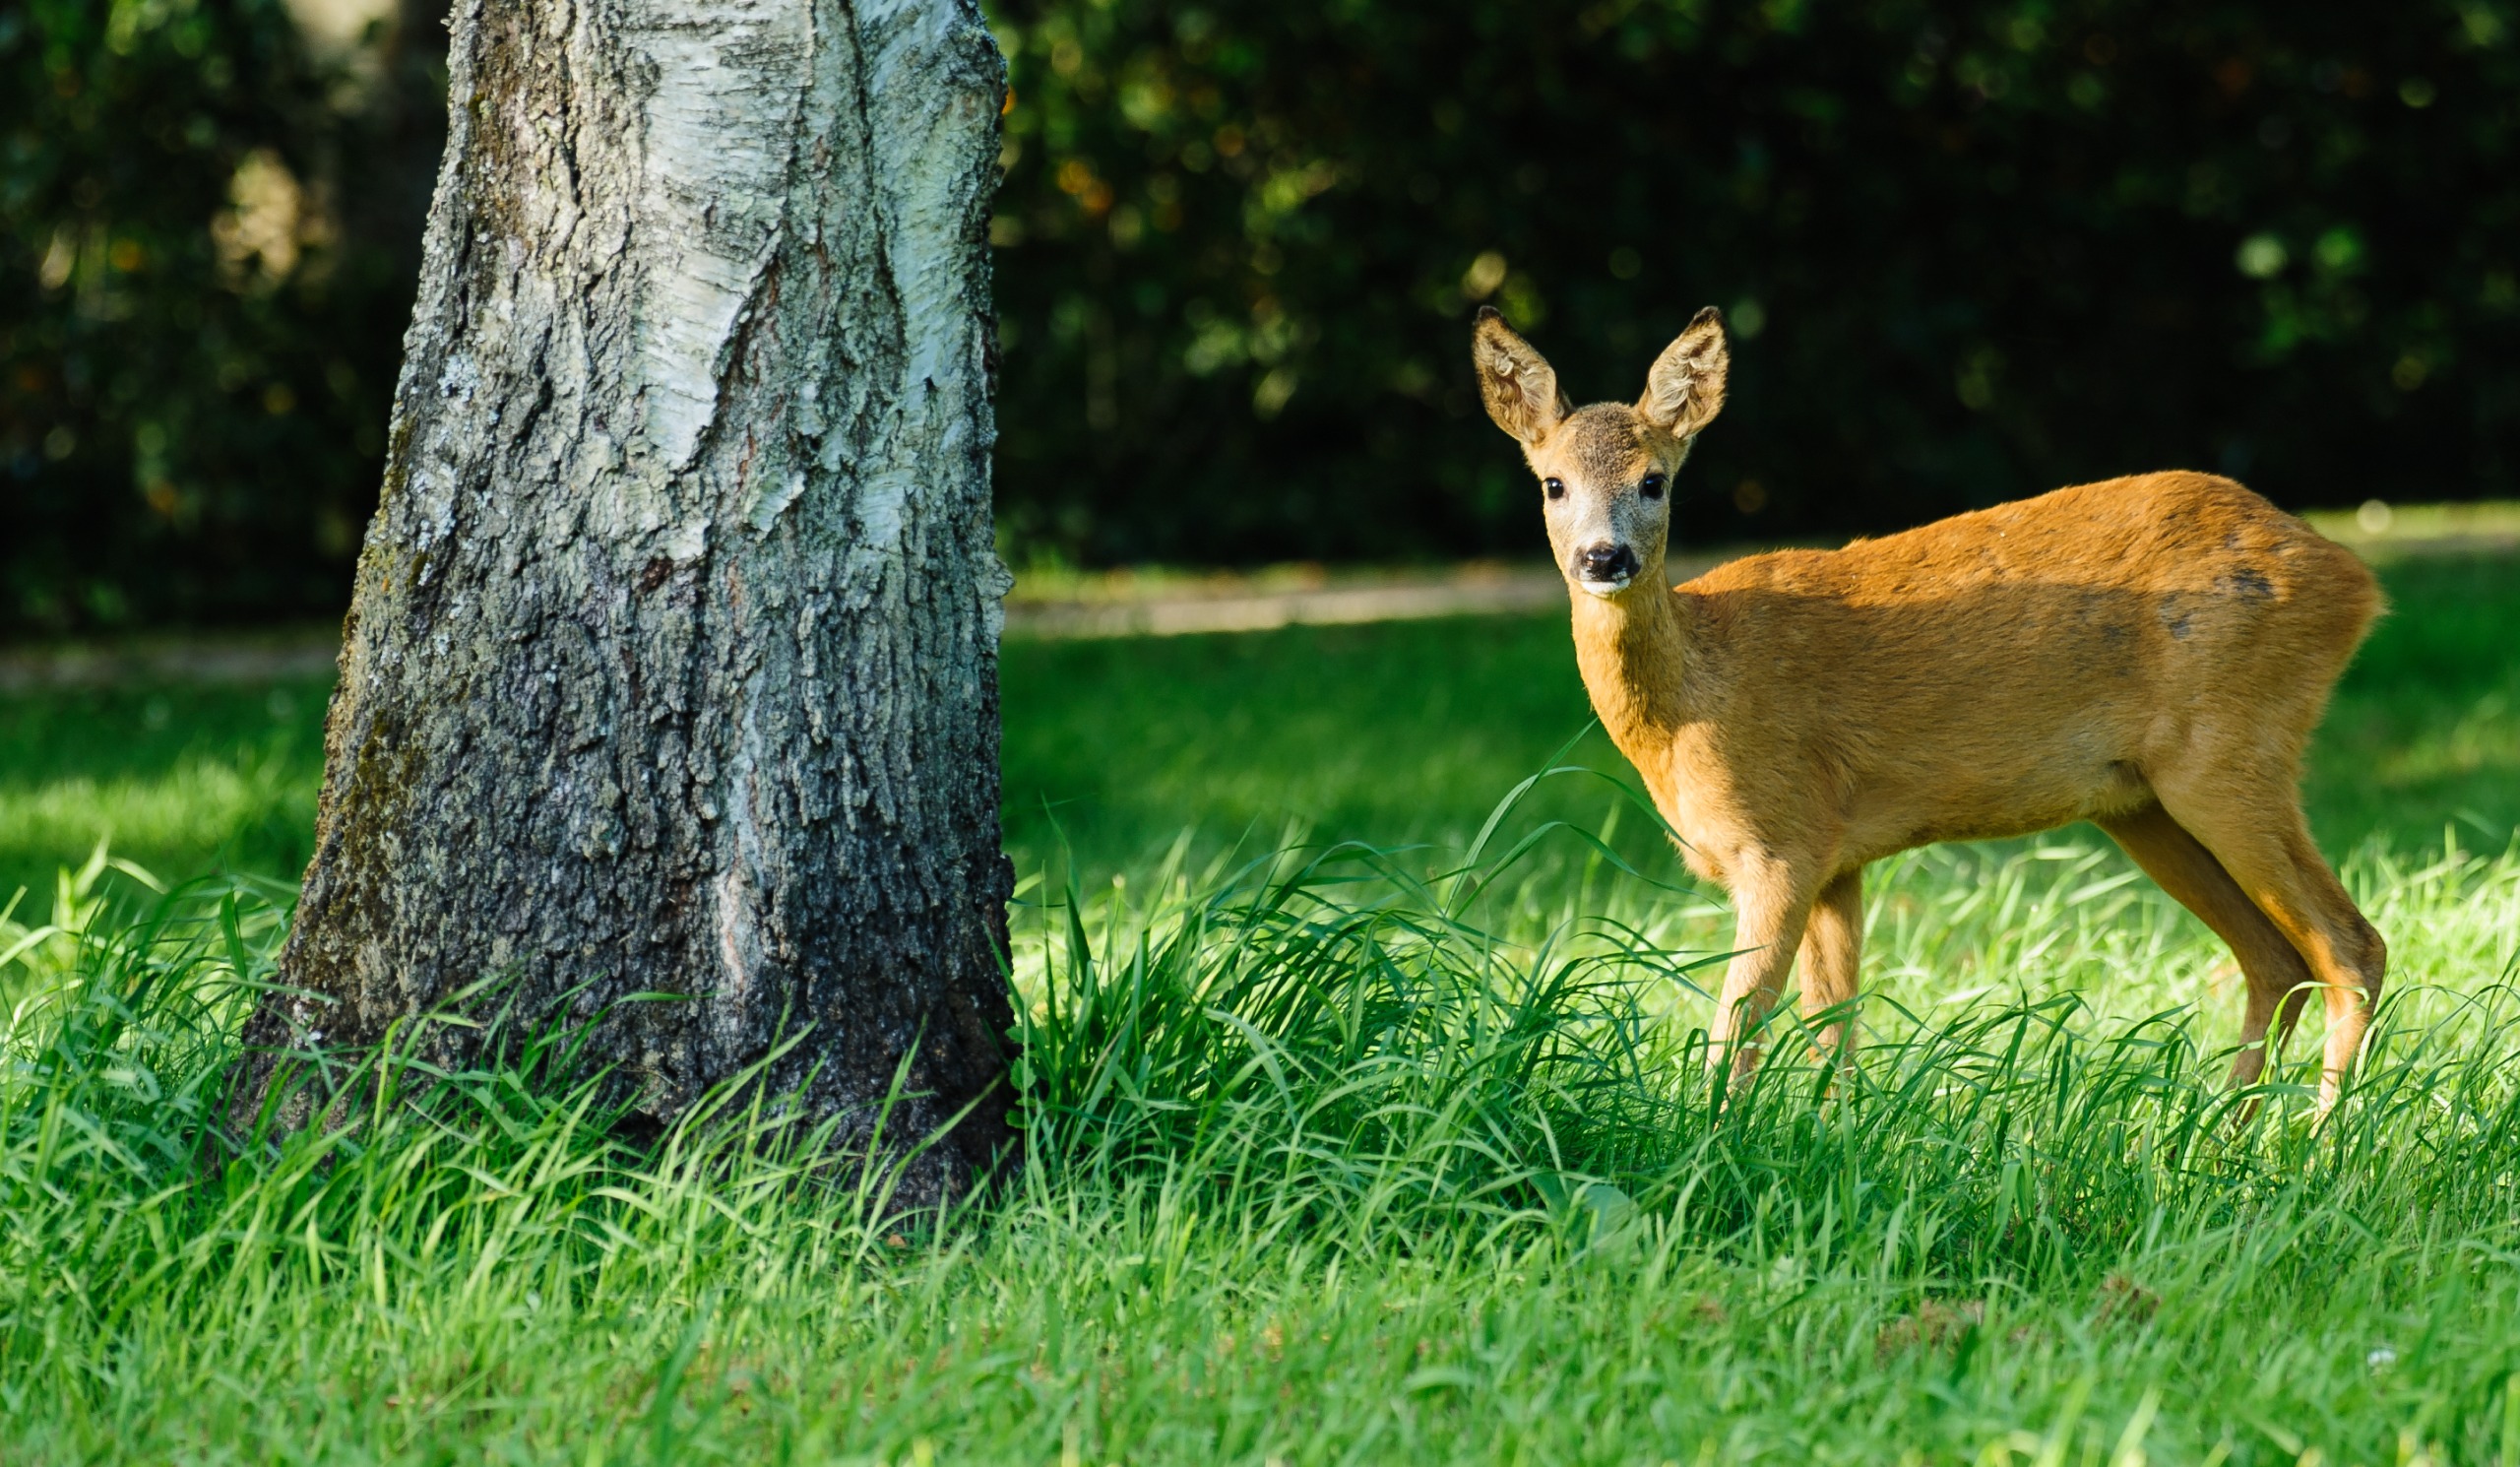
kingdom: Animalia
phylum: Chordata
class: Mammalia
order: Artiodactyla
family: Cervidae
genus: Capreolus
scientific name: Capreolus capreolus
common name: Rådyr
